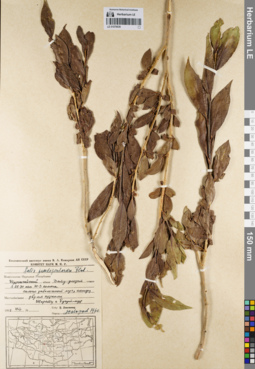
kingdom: Plantae
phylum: Tracheophyta
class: Magnoliopsida
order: Malpighiales
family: Salicaceae
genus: Salix
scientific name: Salix pseudopentandra
